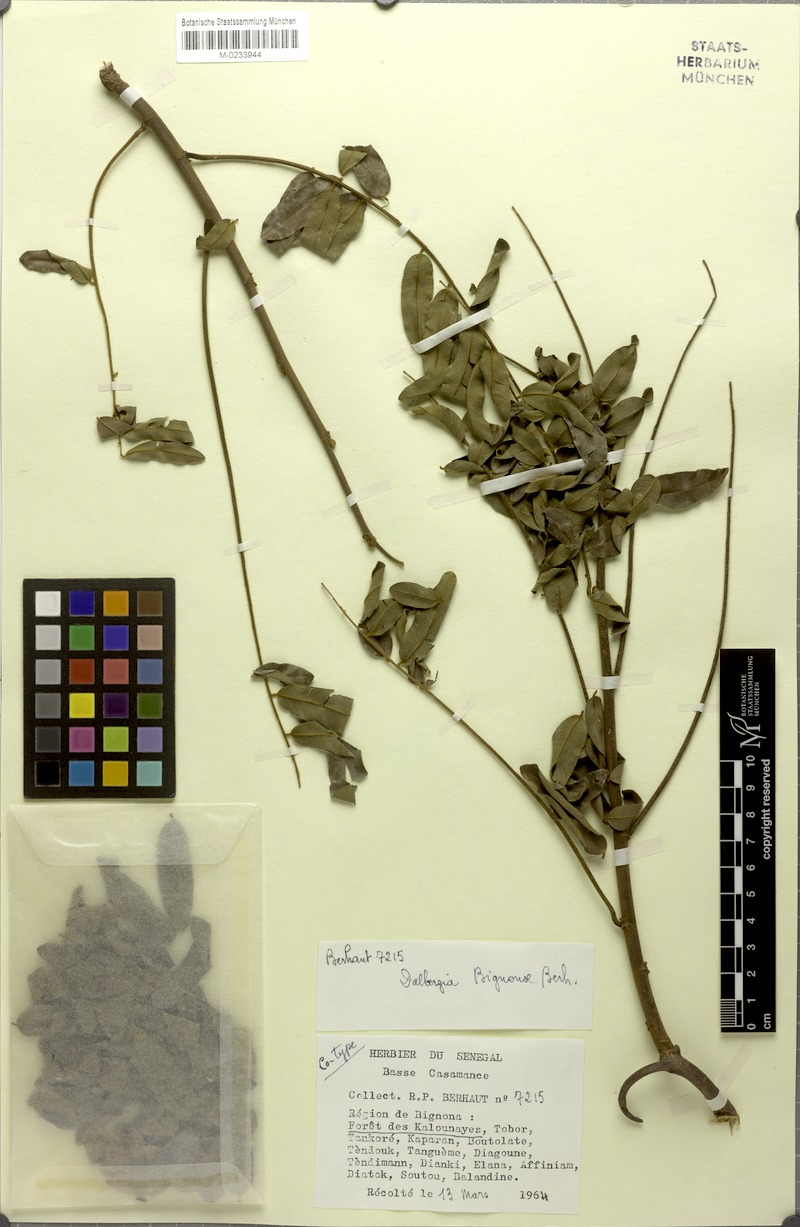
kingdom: Plantae
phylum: Tracheophyta
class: Magnoliopsida
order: Fabales
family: Fabaceae
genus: Dalbergia
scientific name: Dalbergia mayumbensis
